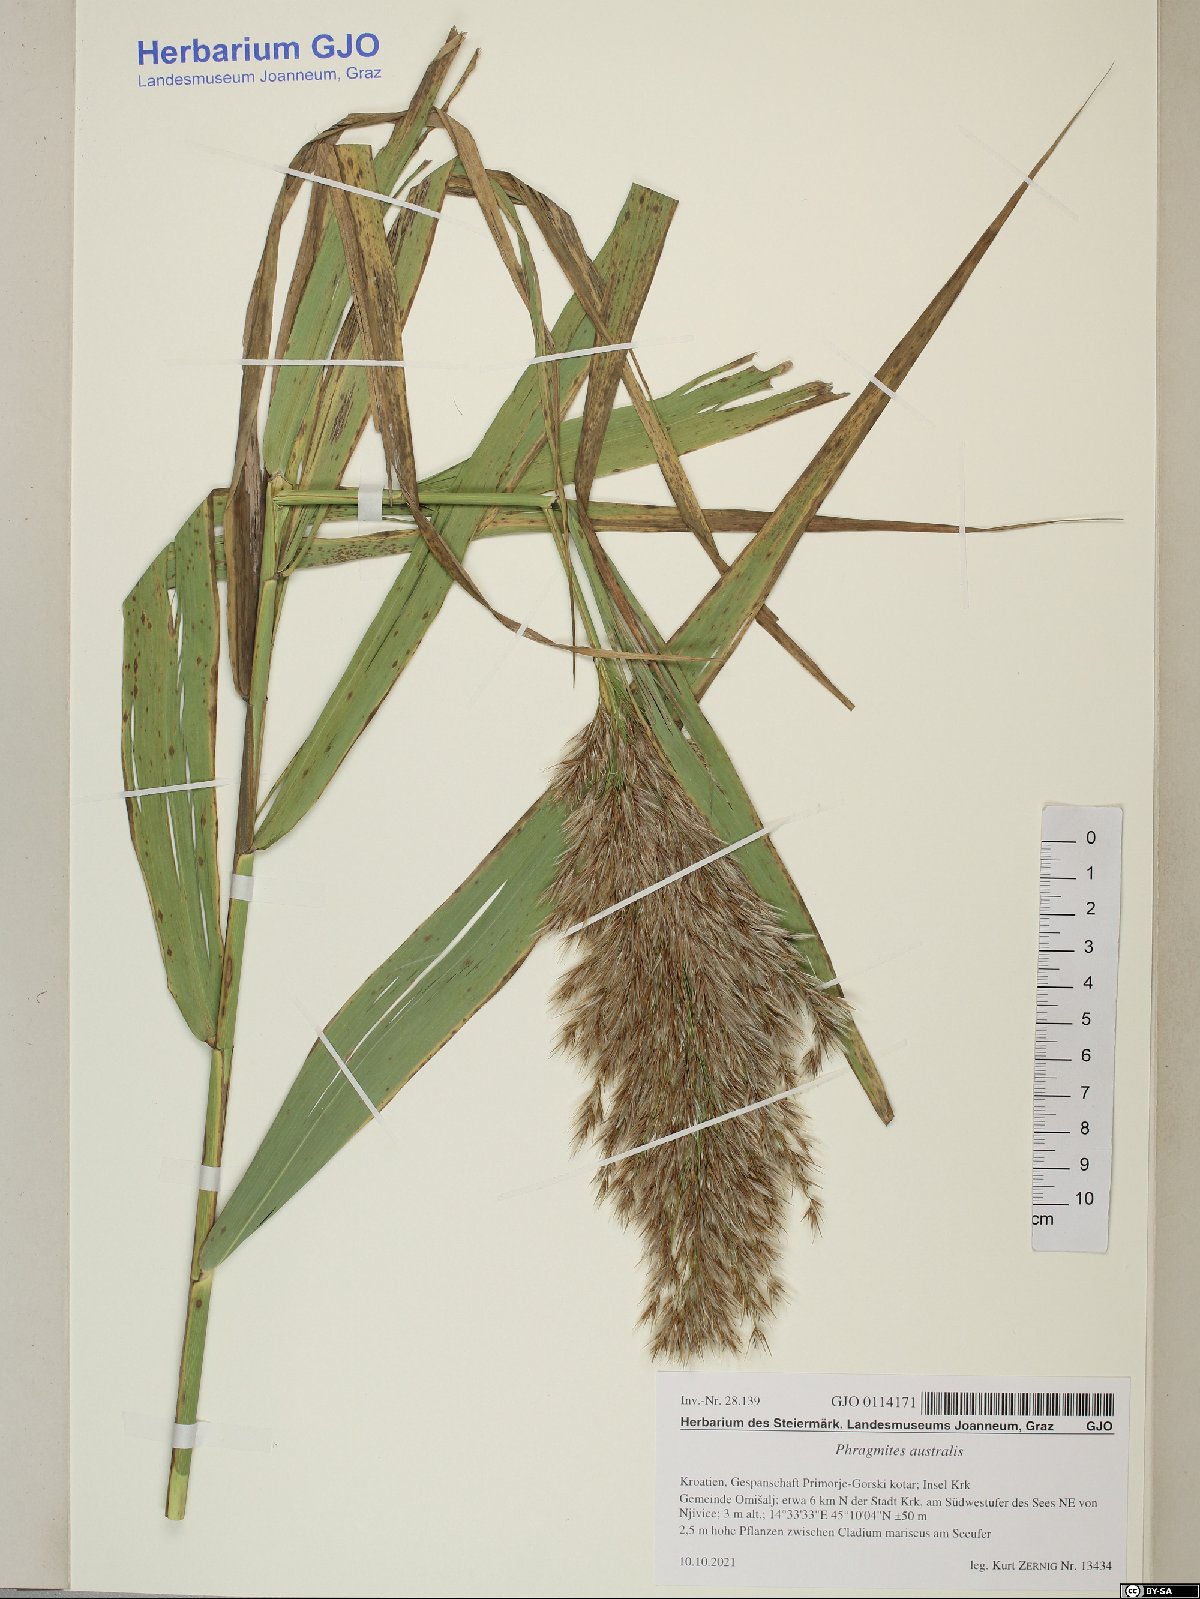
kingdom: Plantae
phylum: Tracheophyta
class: Liliopsida
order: Poales
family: Poaceae
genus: Phragmites
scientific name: Phragmites australis
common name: Common reed
